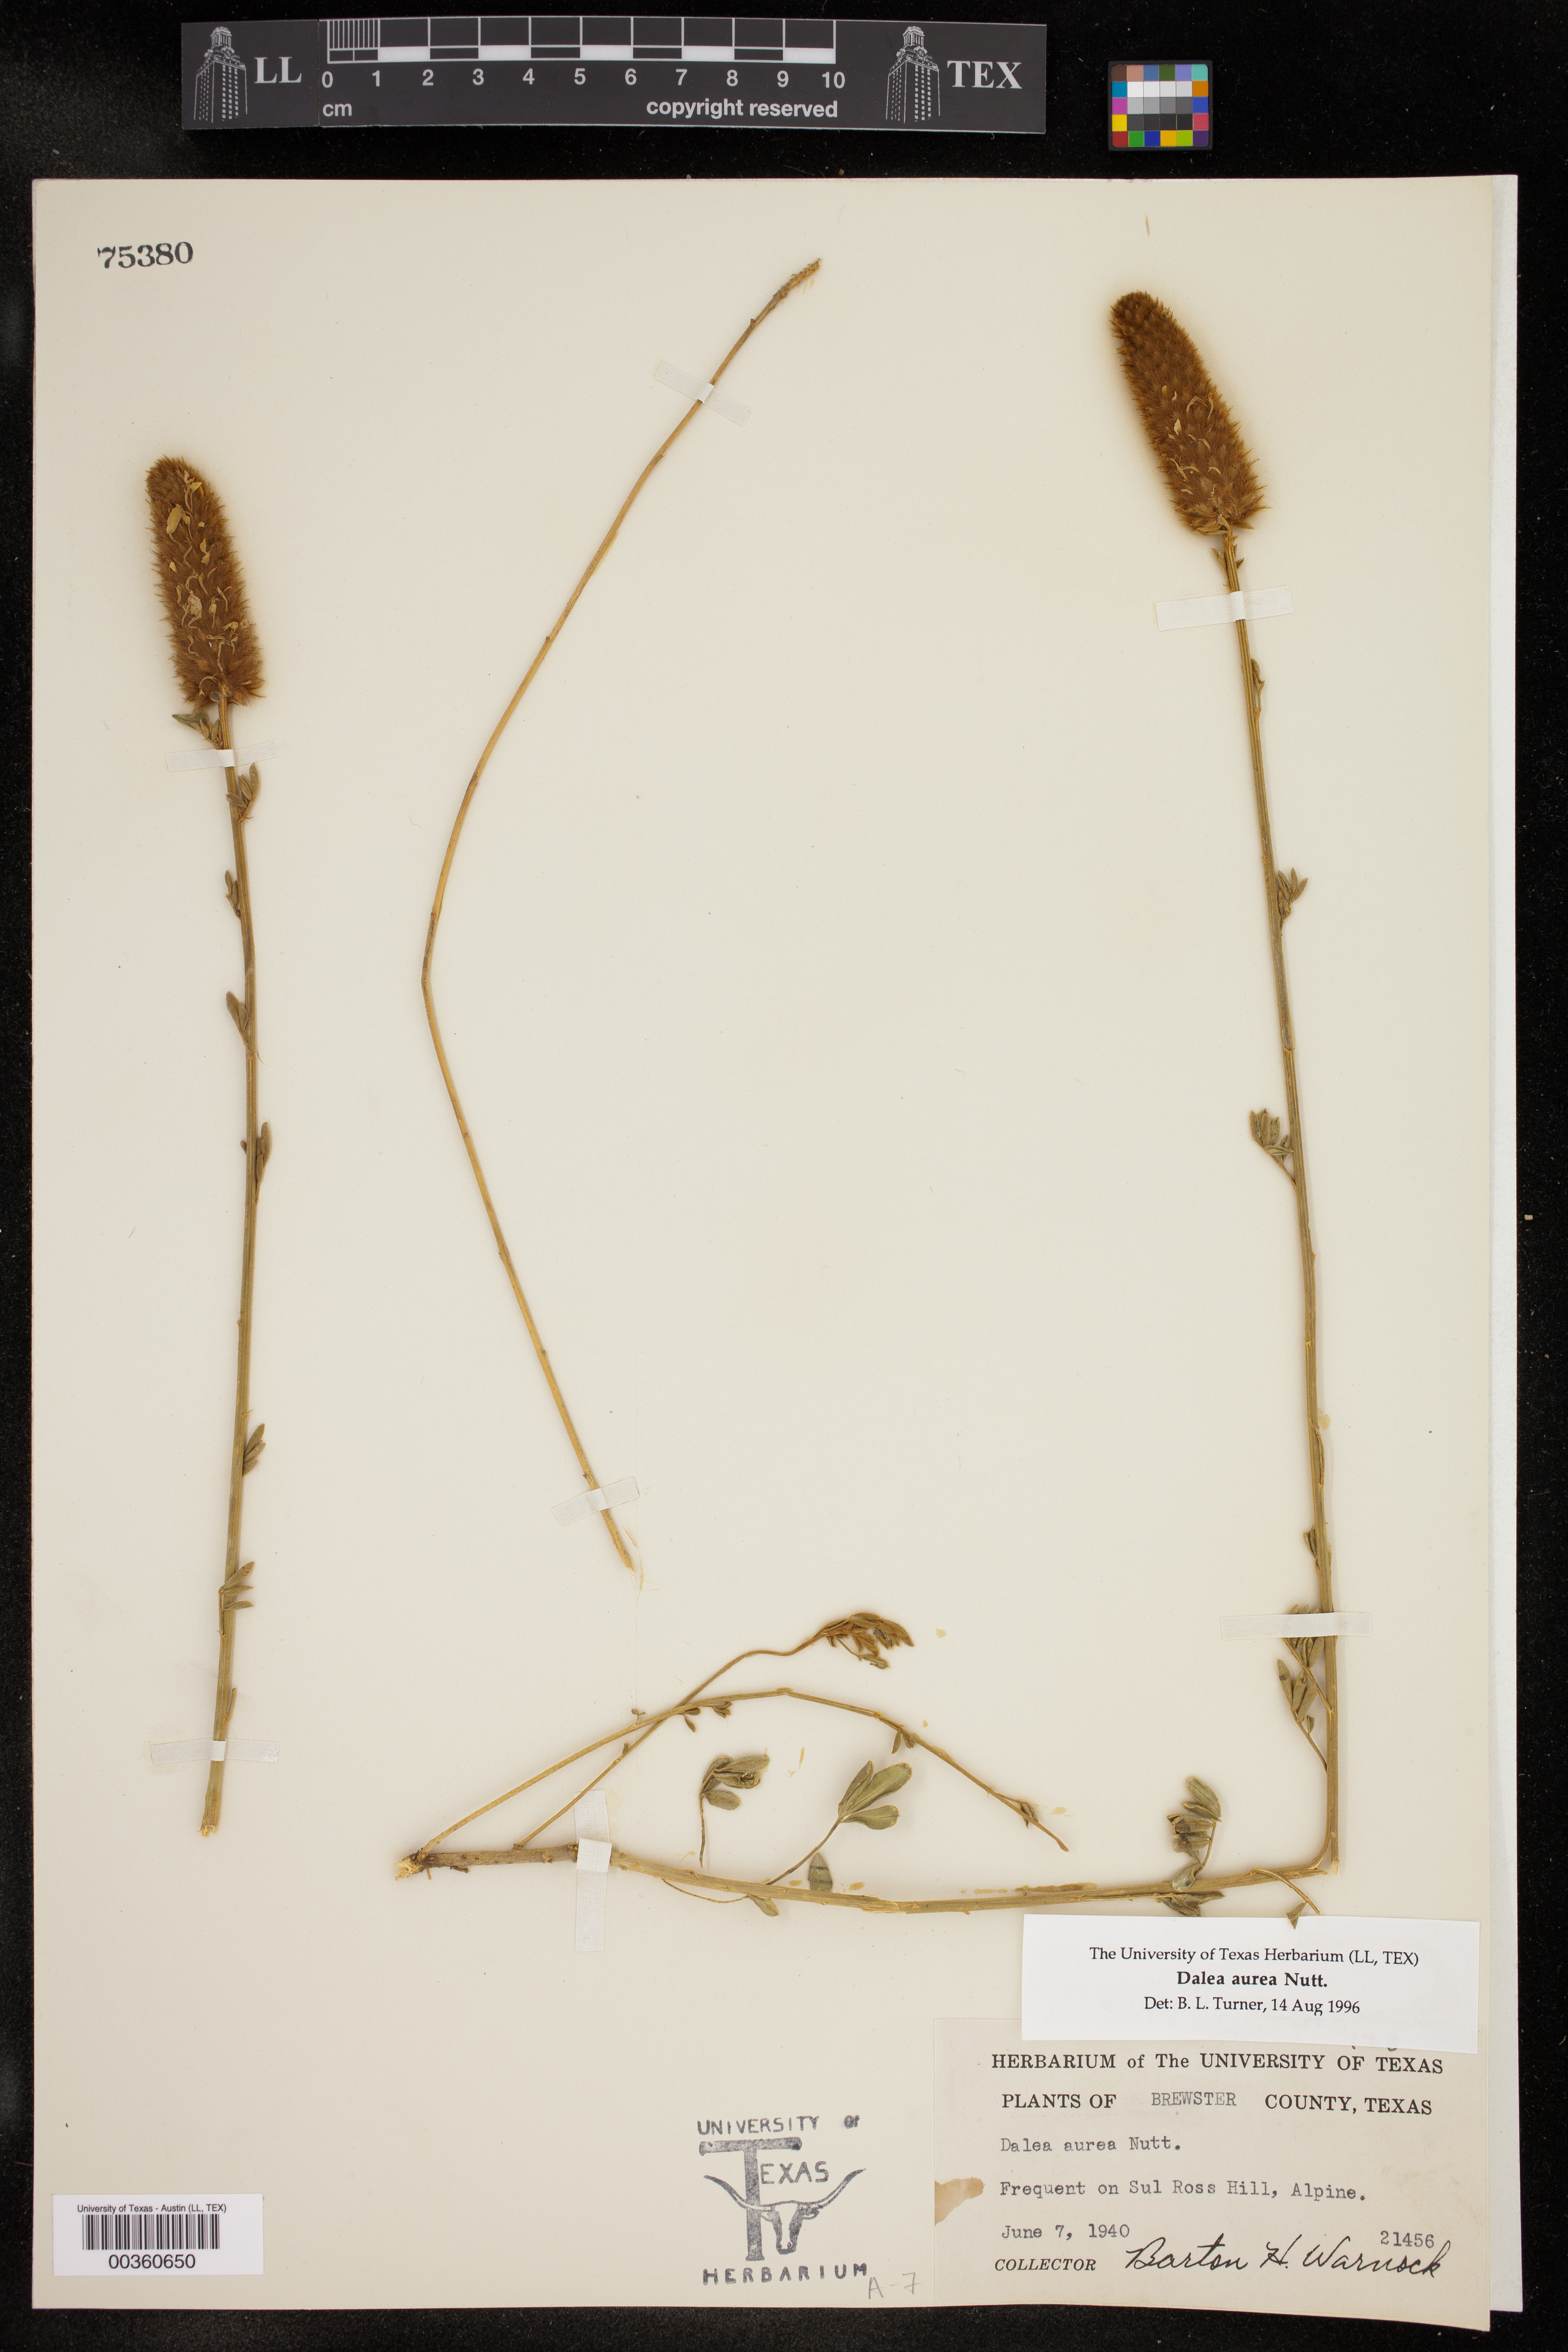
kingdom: Plantae
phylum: Tracheophyta
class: Magnoliopsida
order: Fabales
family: Fabaceae
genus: Dalea
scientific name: Dalea aurea
